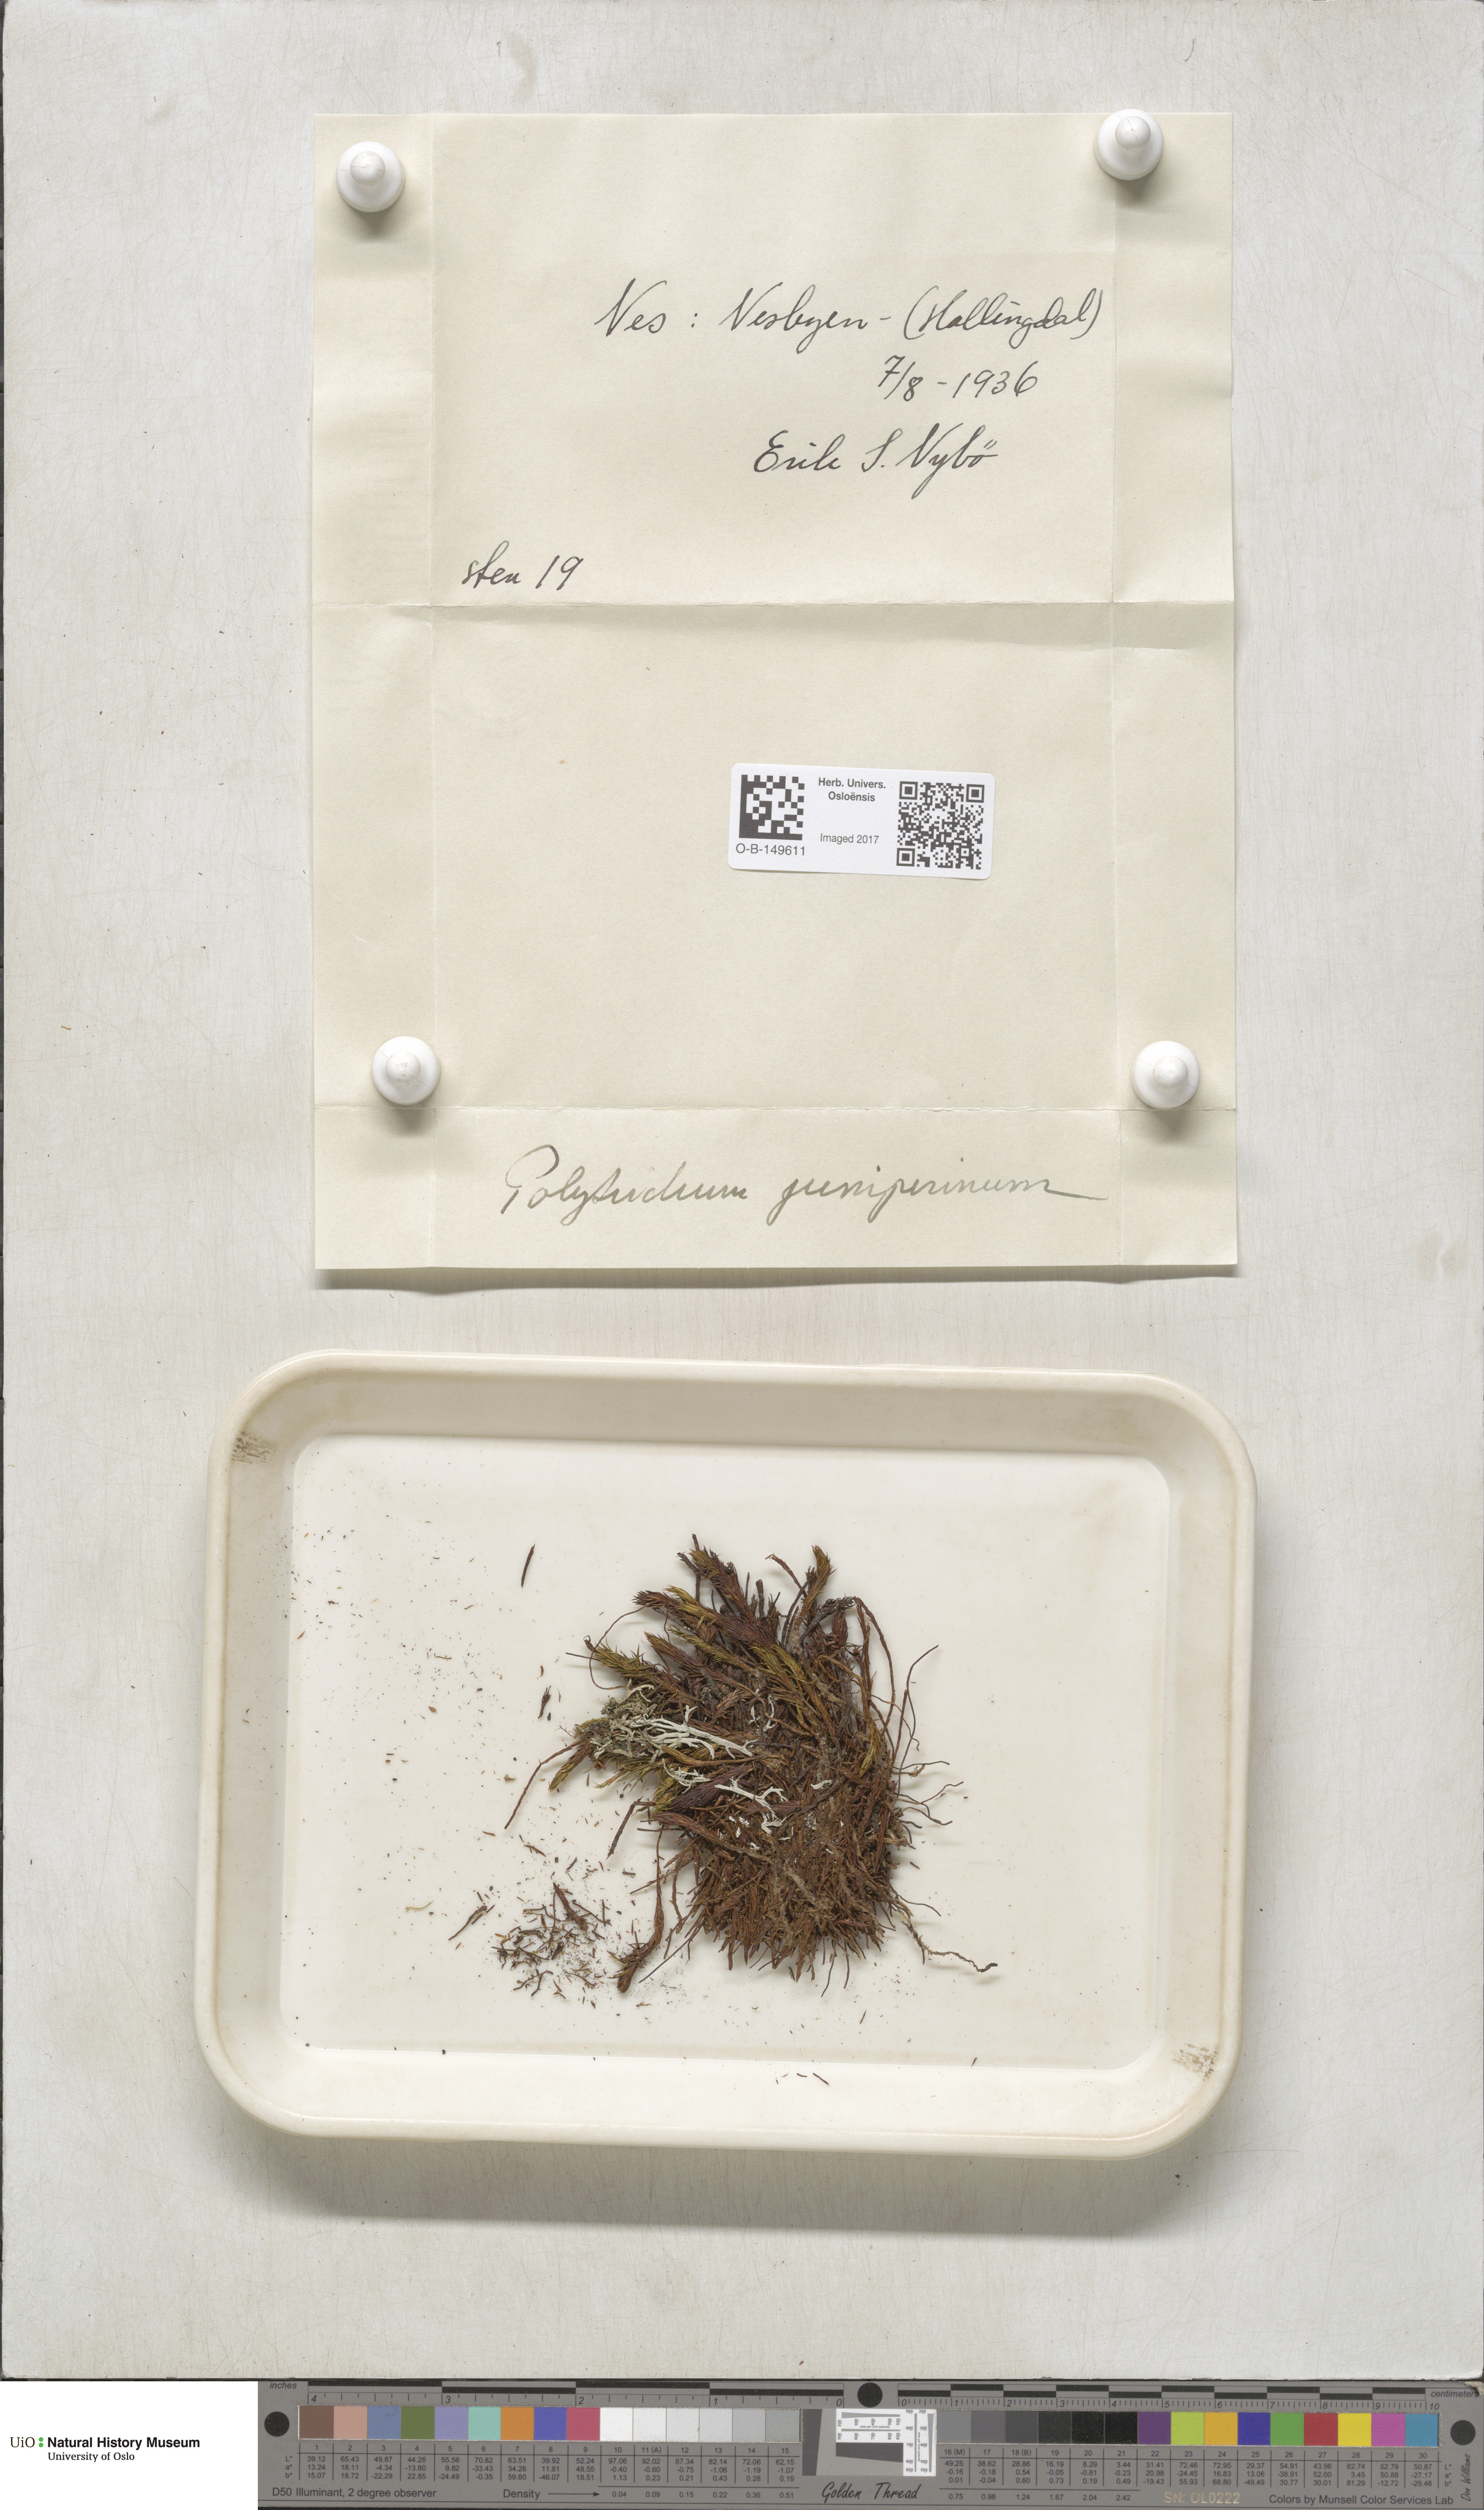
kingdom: Plantae
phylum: Bryophyta
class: Polytrichopsida
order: Polytrichales
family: Polytrichaceae
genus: Polytrichum
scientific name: Polytrichum juniperinum
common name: Juniper haircap moss
